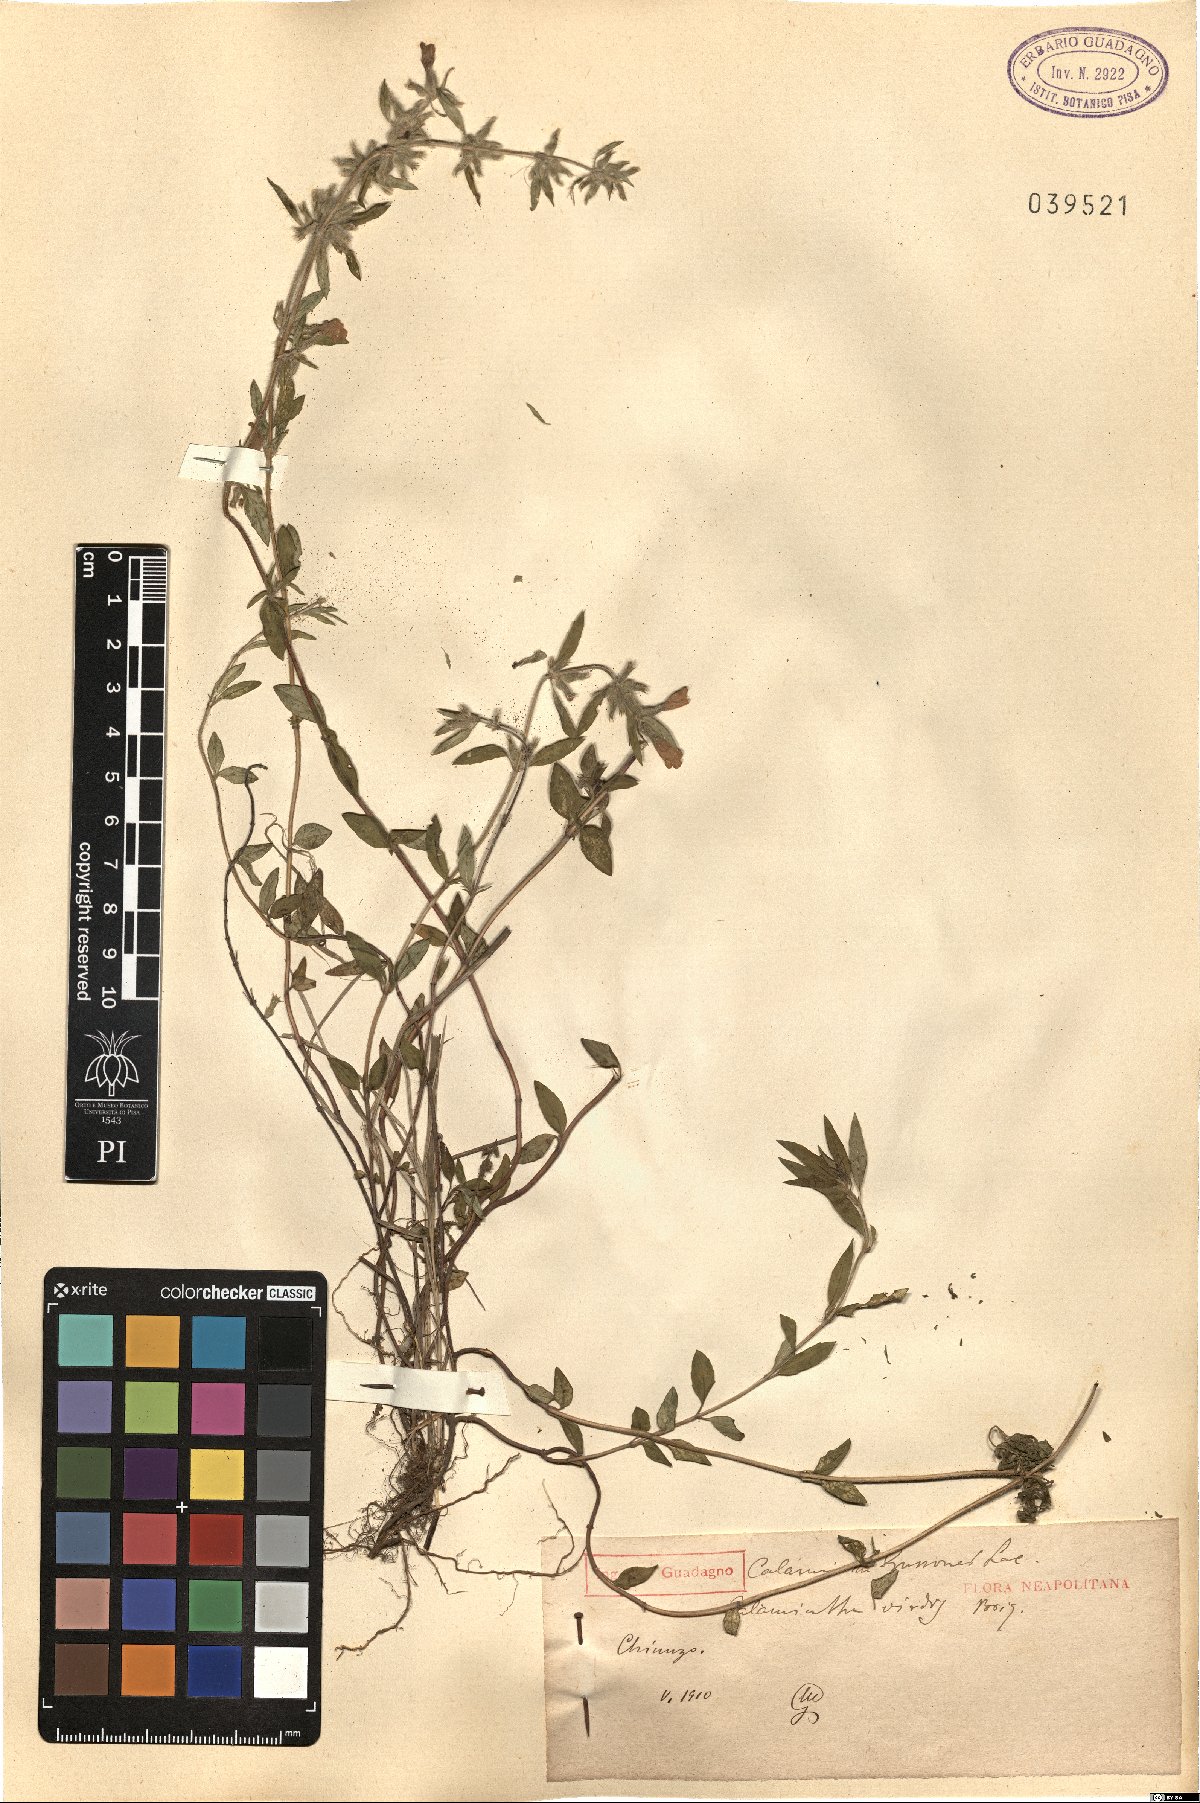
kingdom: Plantae
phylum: Tracheophyta
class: Magnoliopsida
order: Lamiales
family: Lamiaceae
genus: Clinopodium
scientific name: Clinopodium Calamintha gussonei
